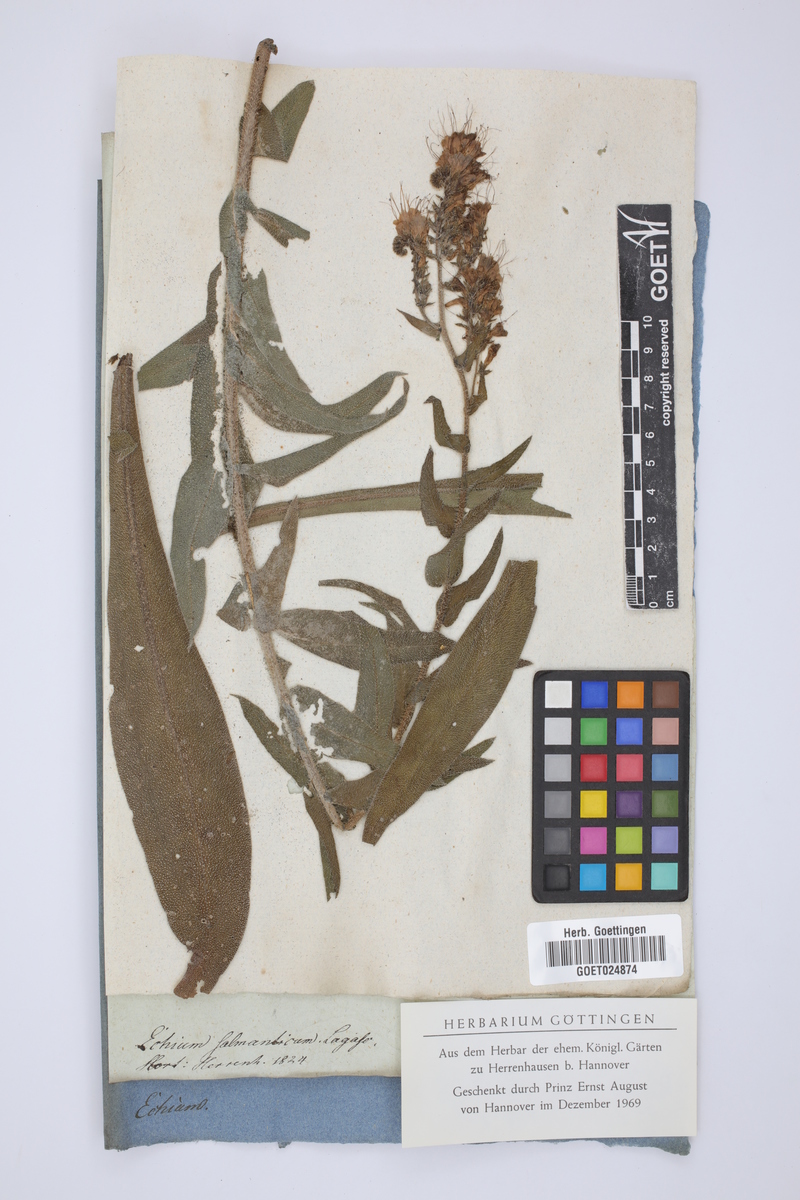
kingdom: Plantae
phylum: Tracheophyta
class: Magnoliopsida
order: Boraginales
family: Boraginaceae
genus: Echium
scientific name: Echium salmanticum
